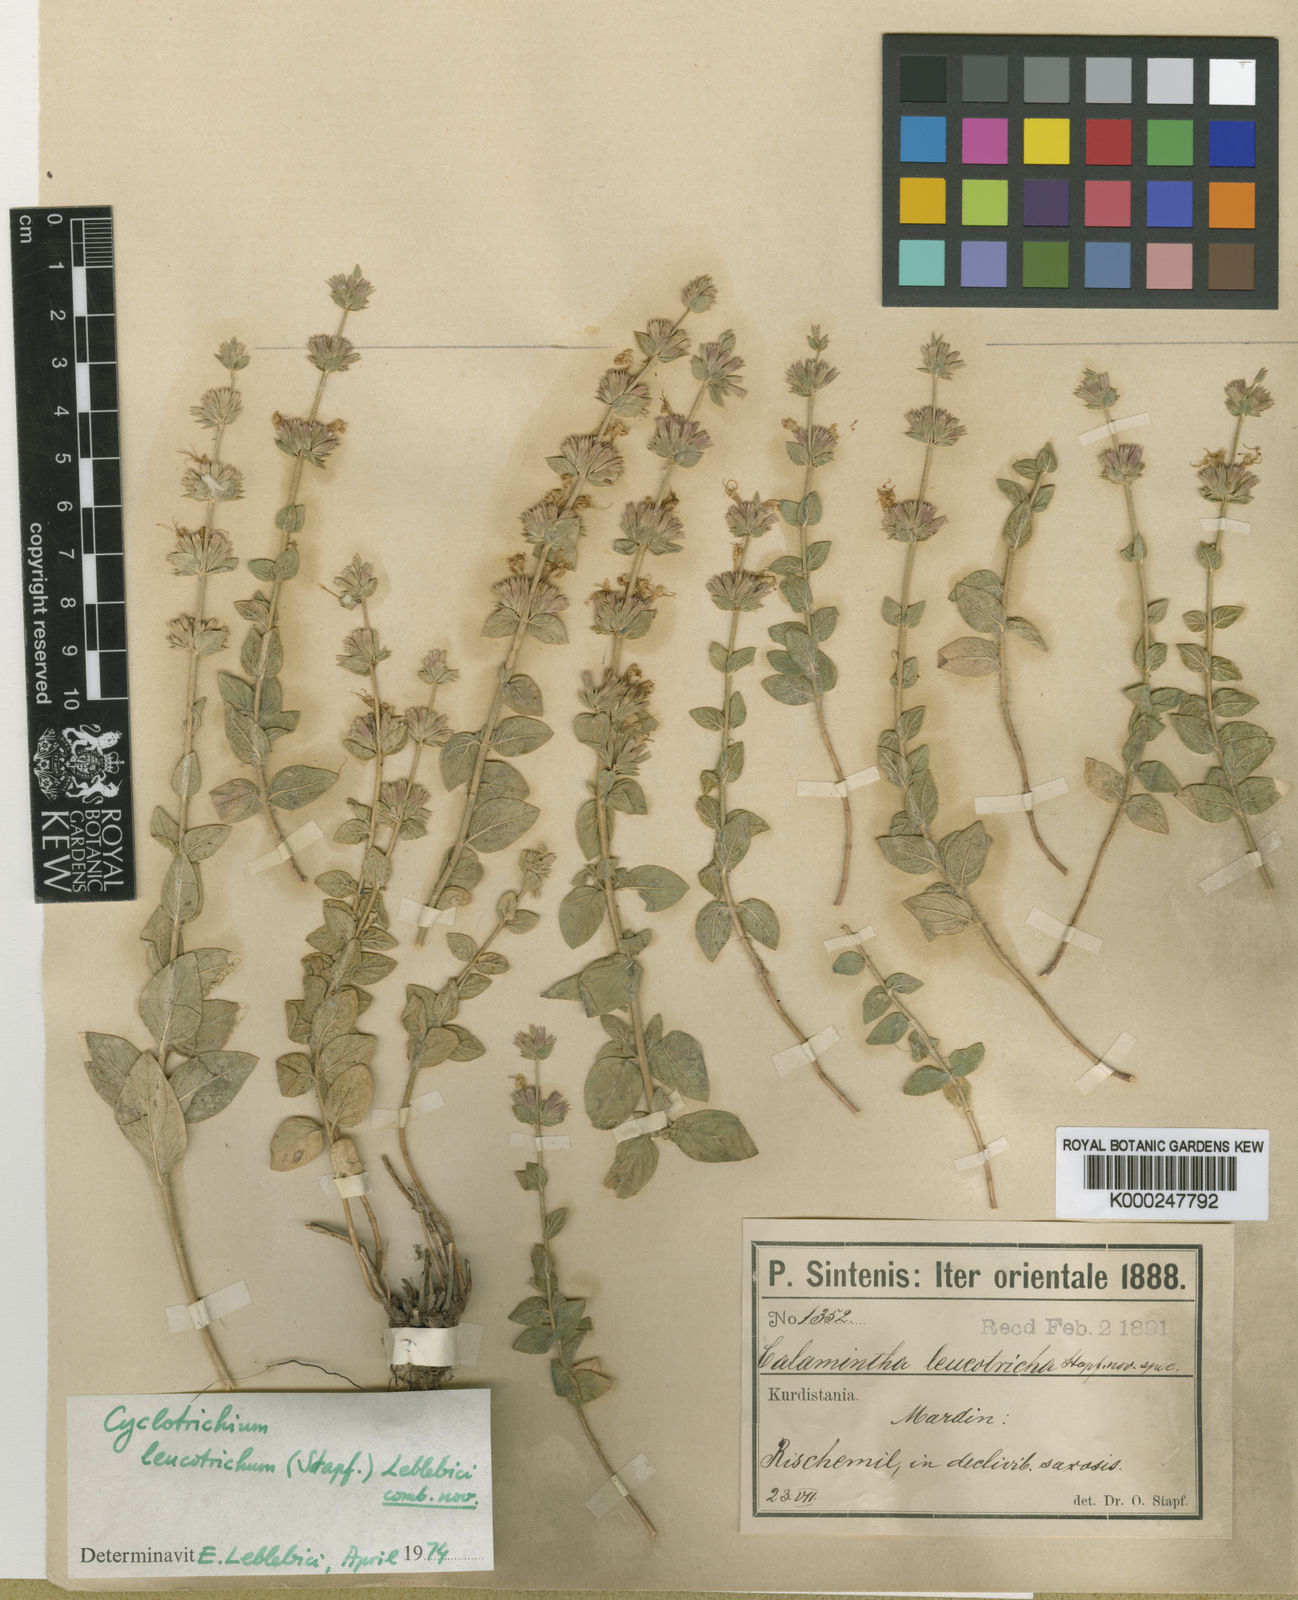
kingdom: Plantae
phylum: Tracheophyta
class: Magnoliopsida
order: Lamiales
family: Lamiaceae
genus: Cyclotrichium
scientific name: Cyclotrichium leucotrichum
